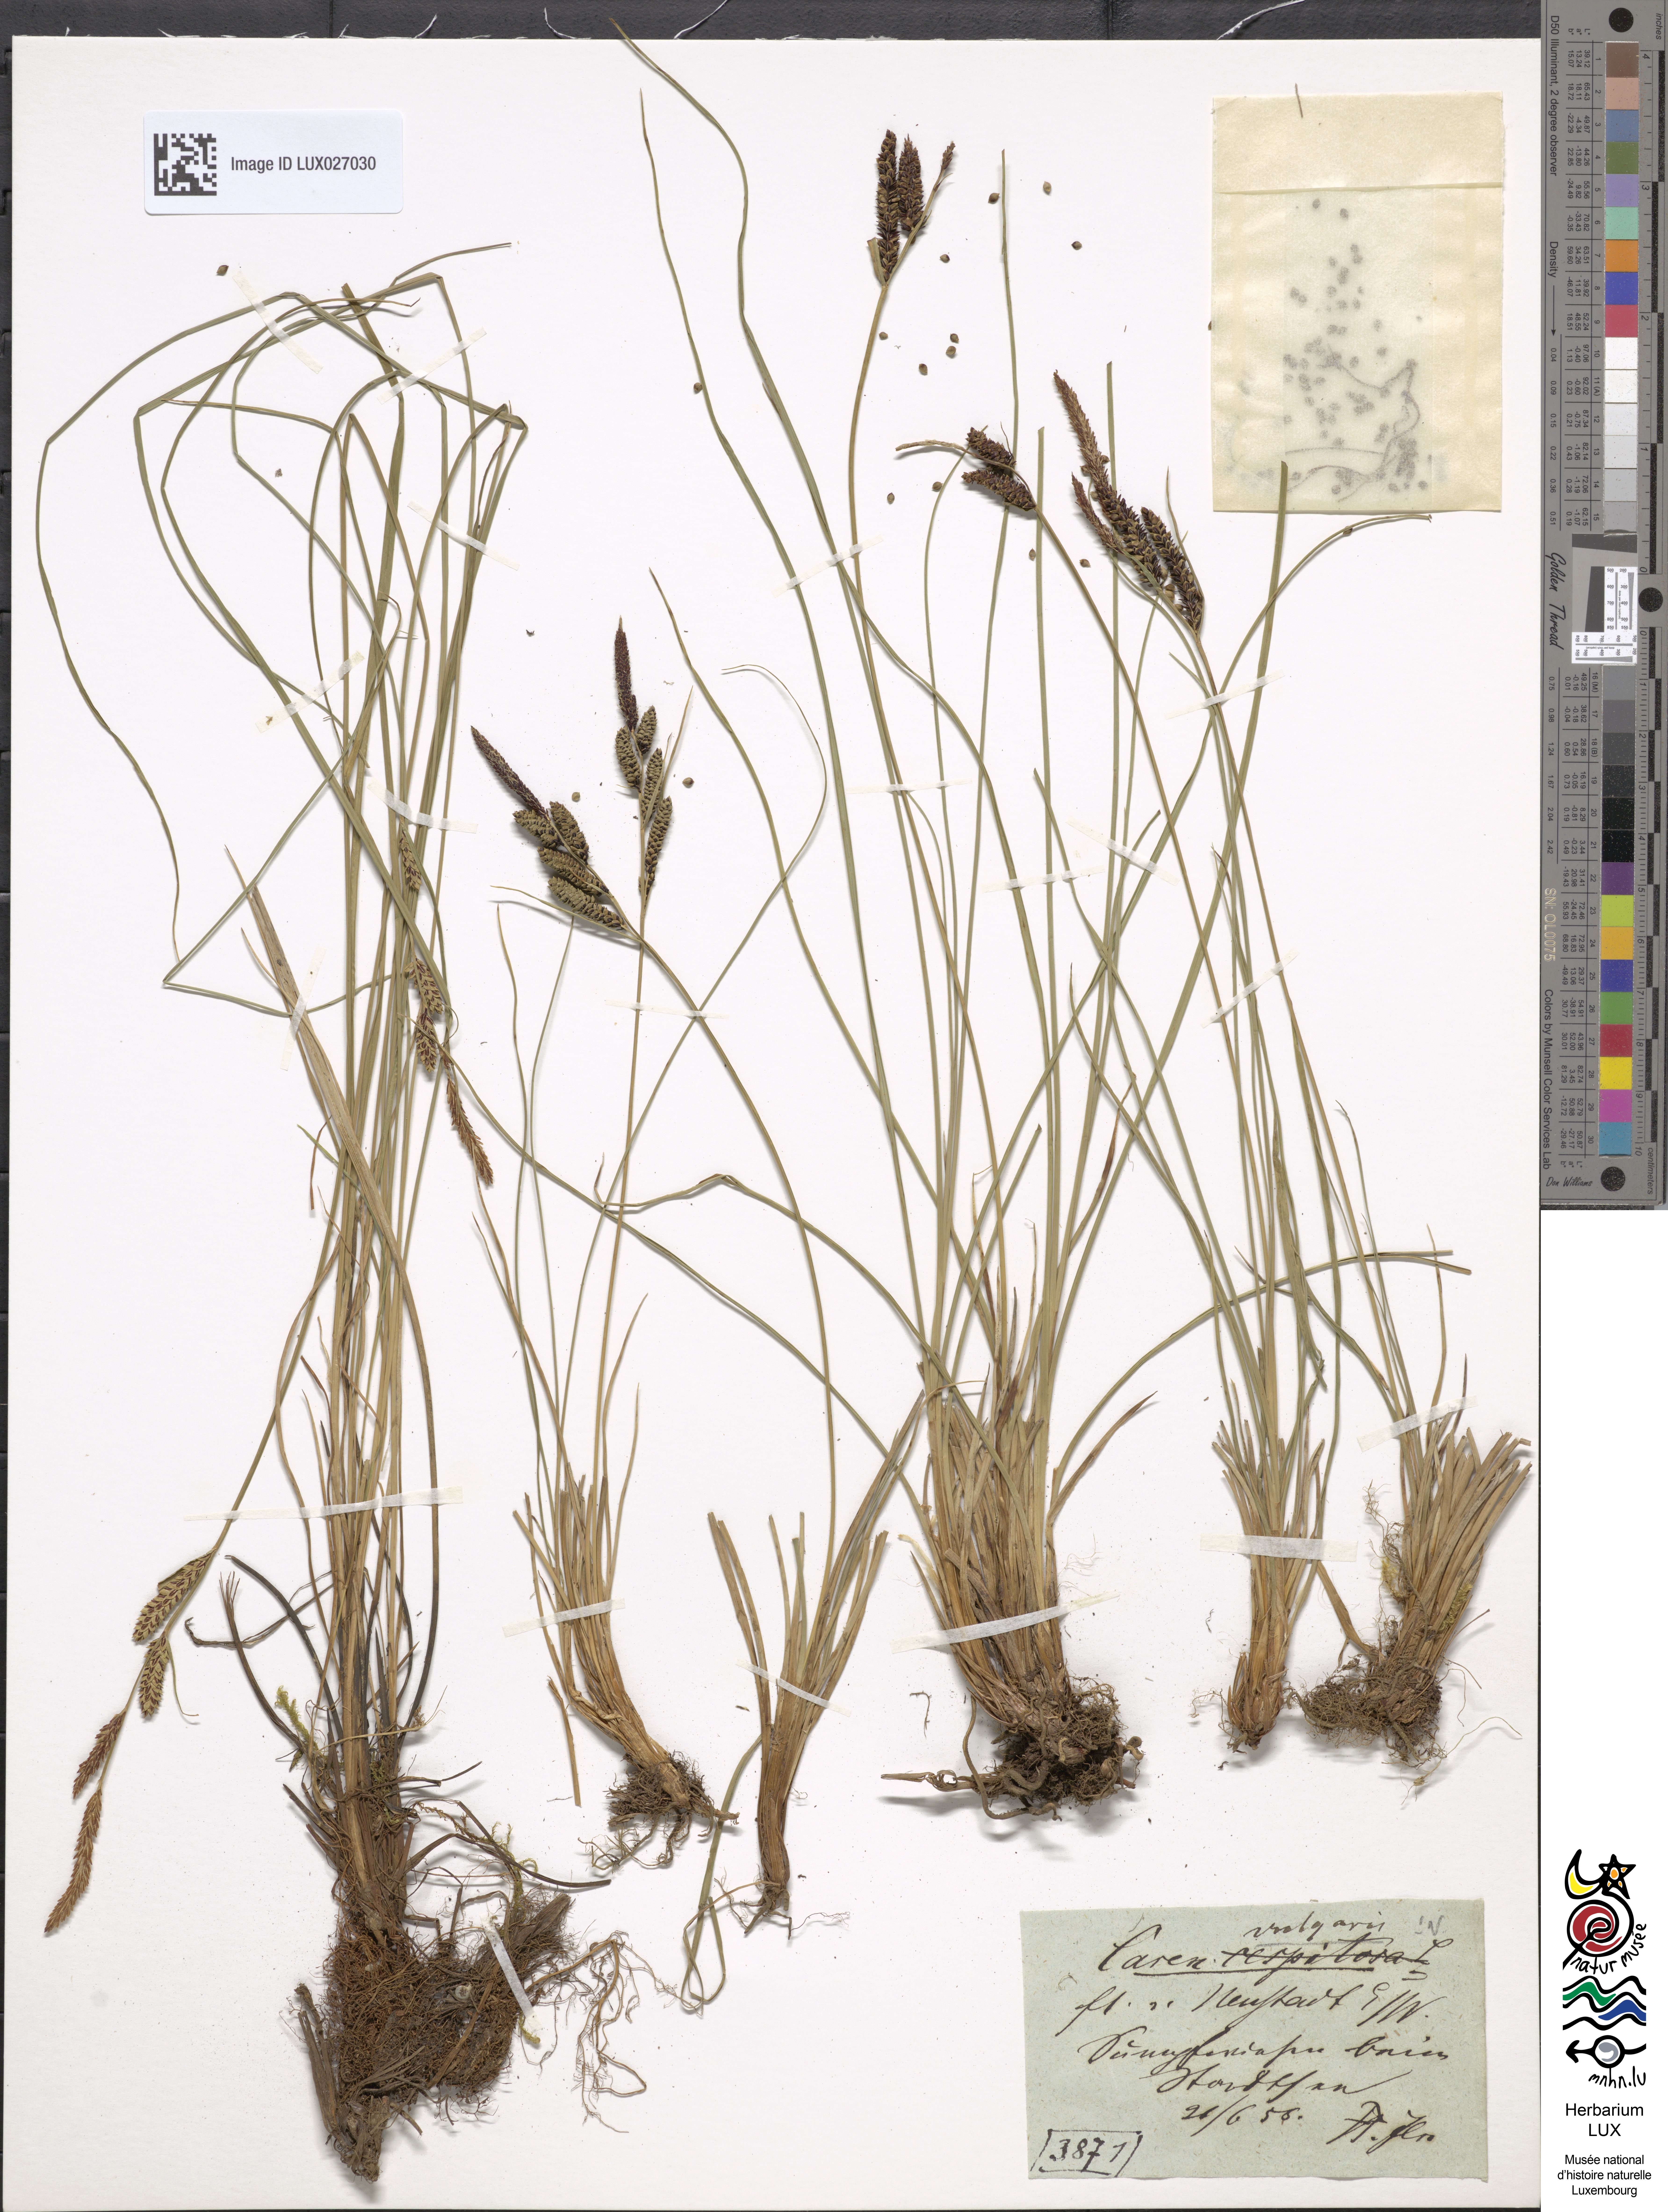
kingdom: Plantae
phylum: Tracheophyta
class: Liliopsida
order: Poales
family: Cyperaceae
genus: Carex
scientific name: Carex nigra
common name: Common sedge
